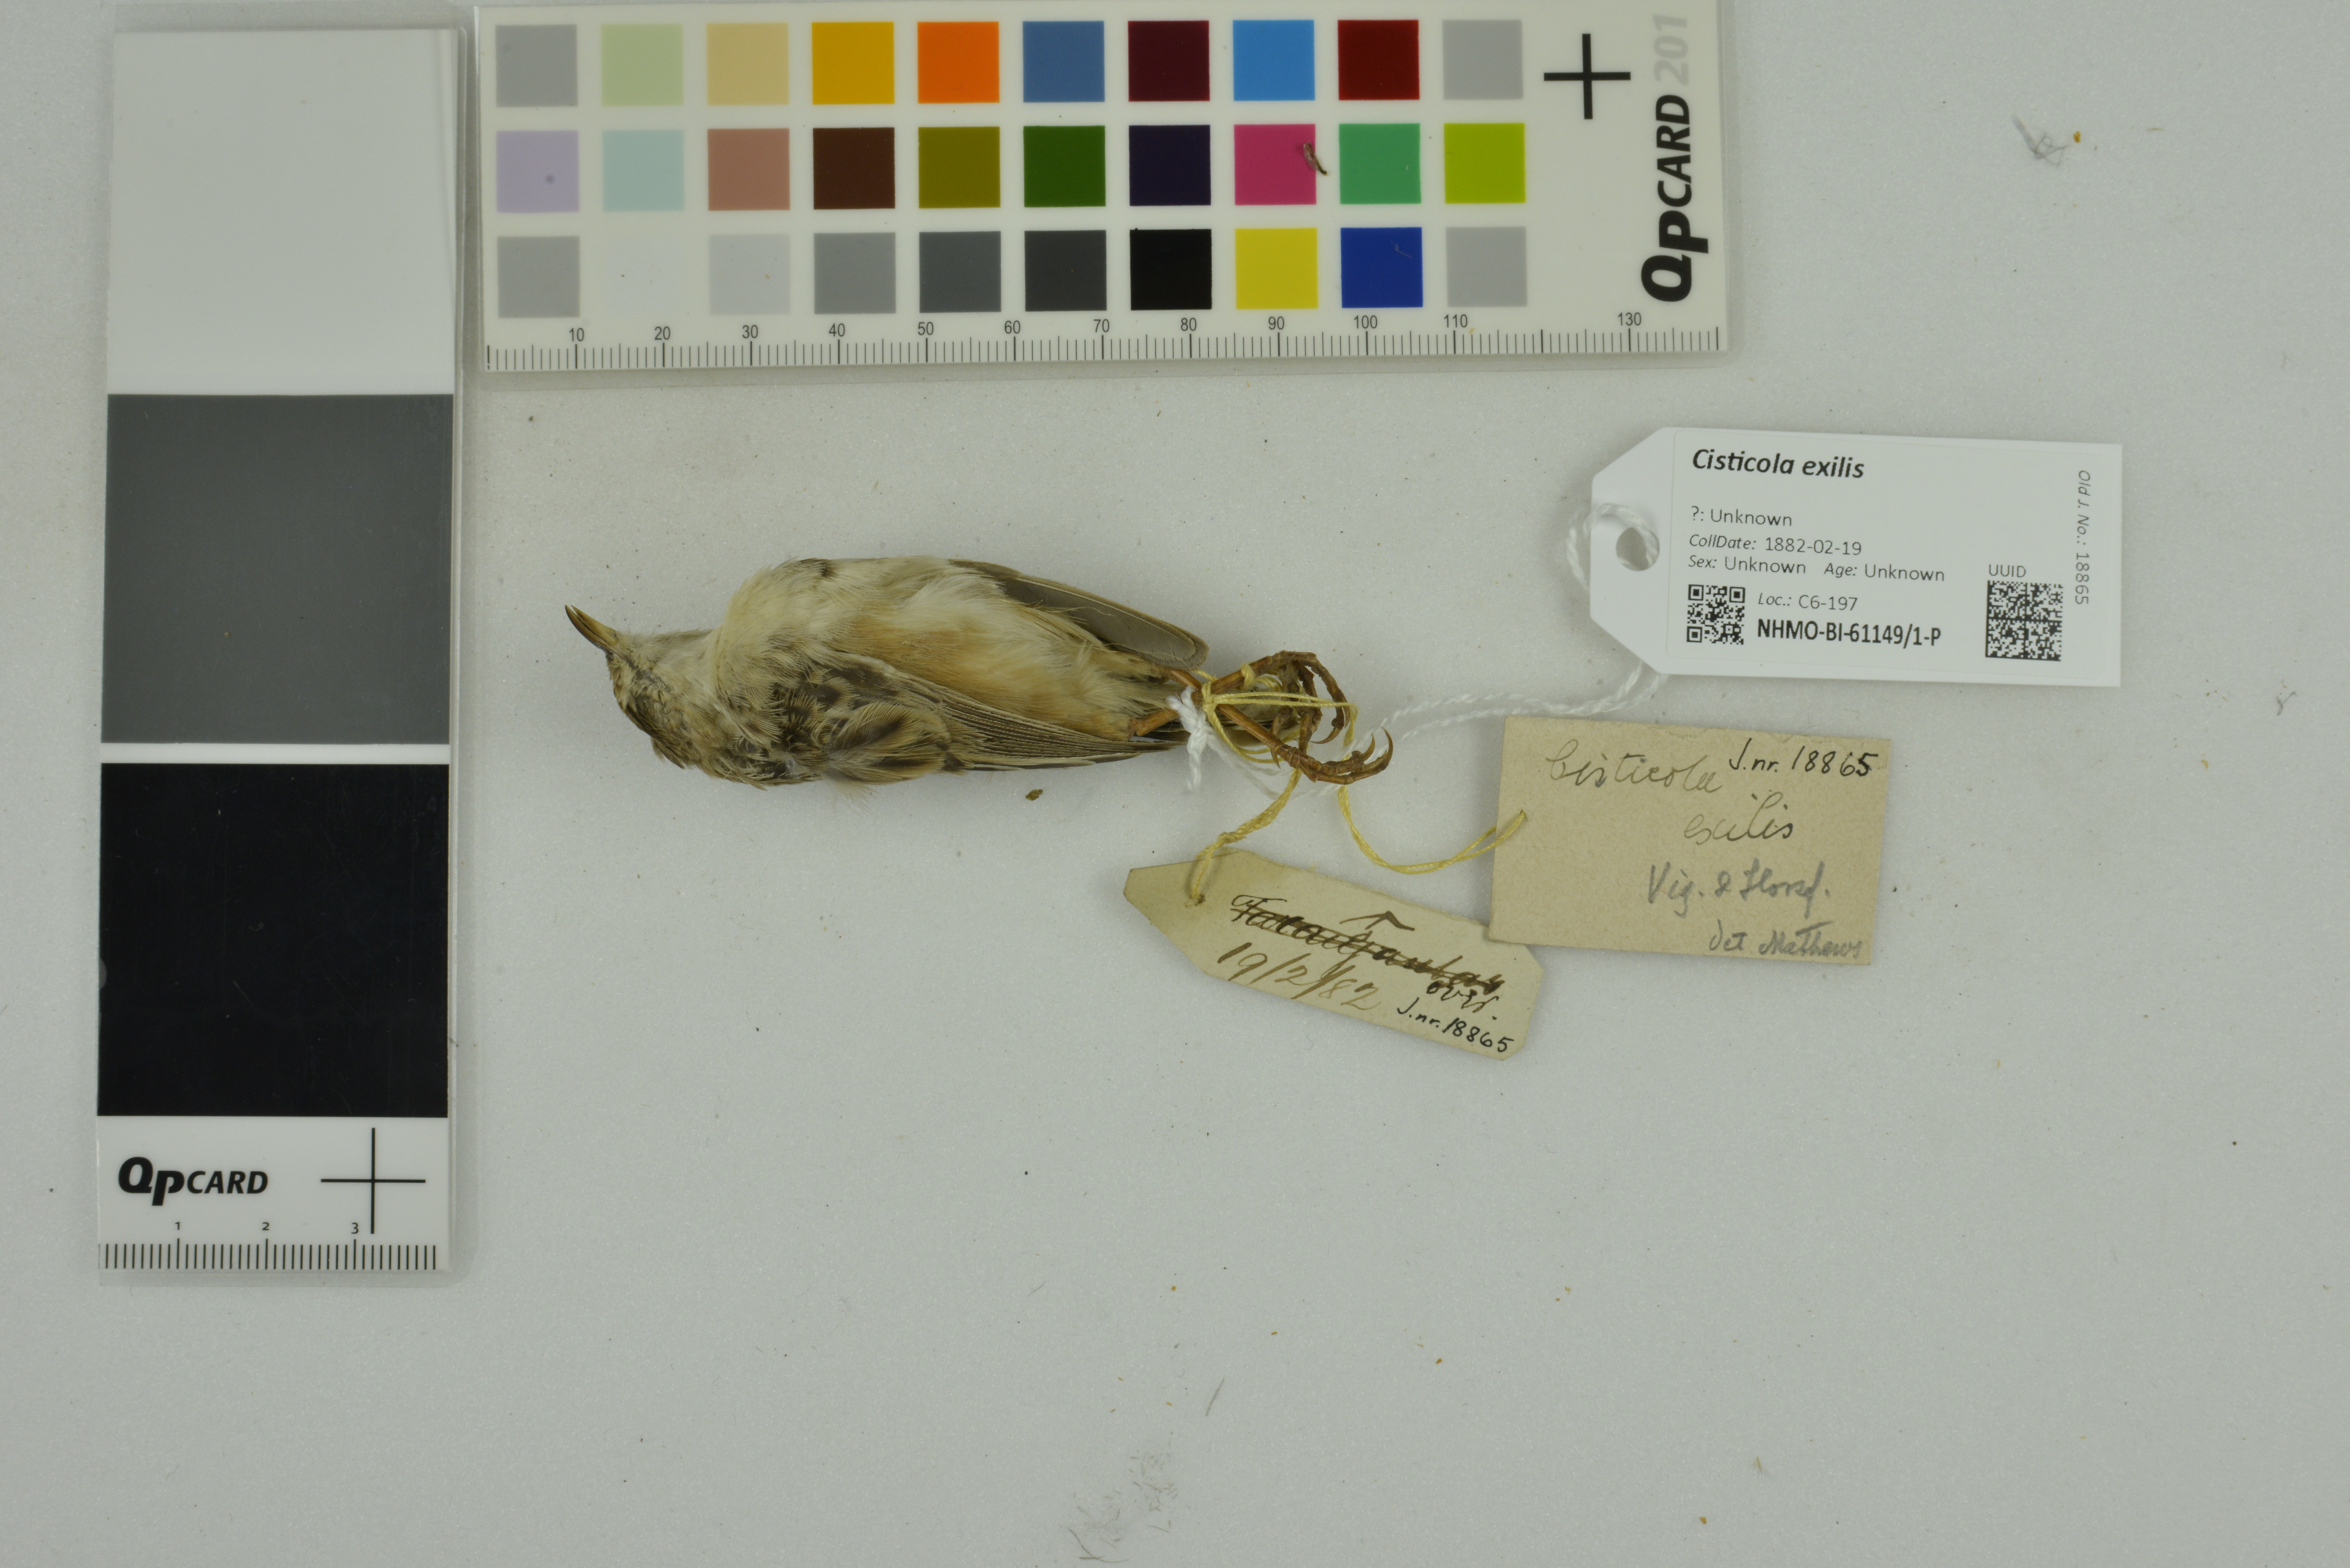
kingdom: Animalia
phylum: Chordata
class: Aves
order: Passeriformes
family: Cisticolidae
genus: Cisticola
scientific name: Cisticola exilis
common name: Golden-headed cisticola
